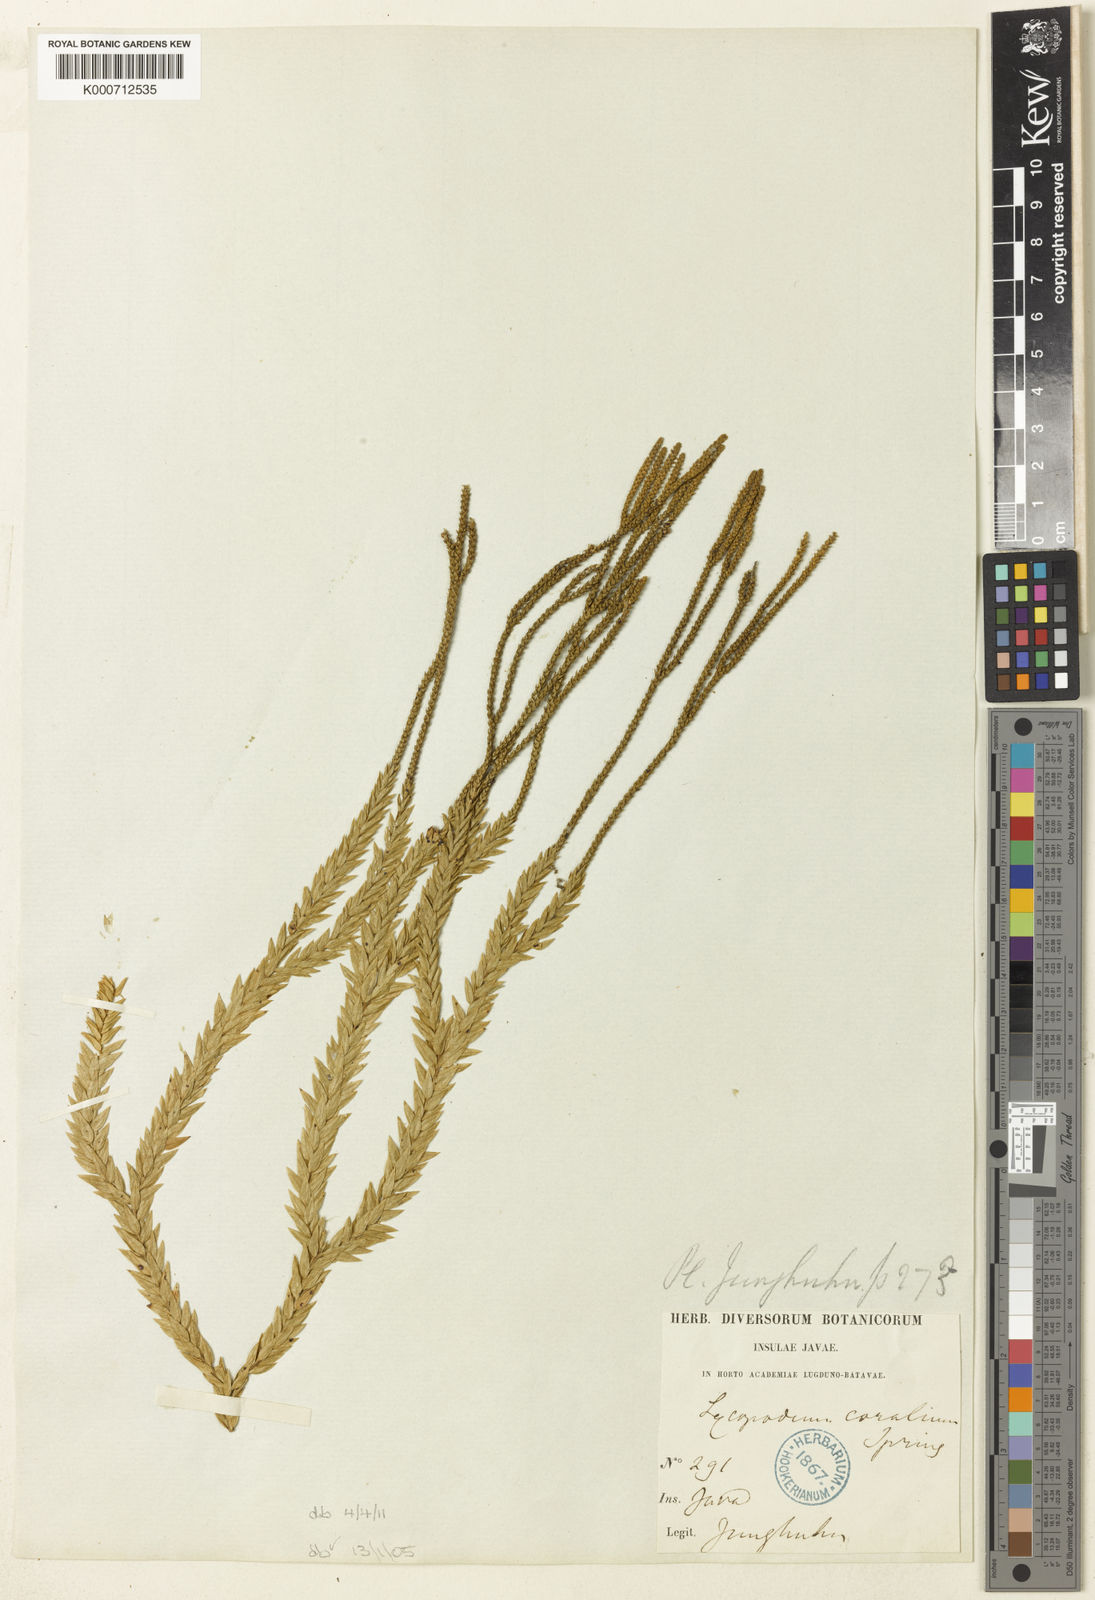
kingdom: Plantae
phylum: Tracheophyta
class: Lycopodiopsida
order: Lycopodiales
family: Lycopodiaceae
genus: Phlegmariurus
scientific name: Phlegmariurus coralium
